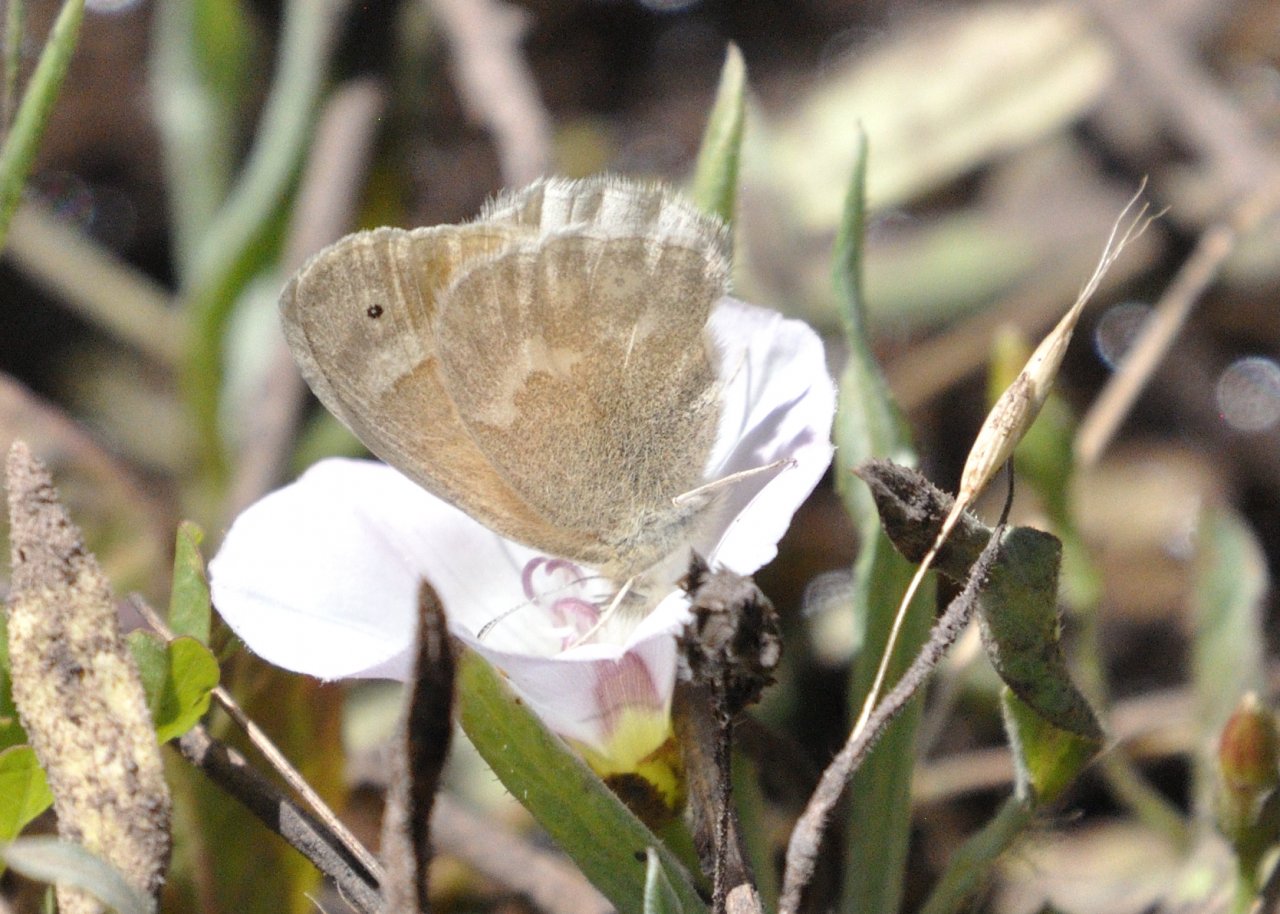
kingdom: Animalia
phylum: Arthropoda
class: Insecta
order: Lepidoptera
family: Nymphalidae
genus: Coenonympha
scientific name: Coenonympha tullia
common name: Large Heath
